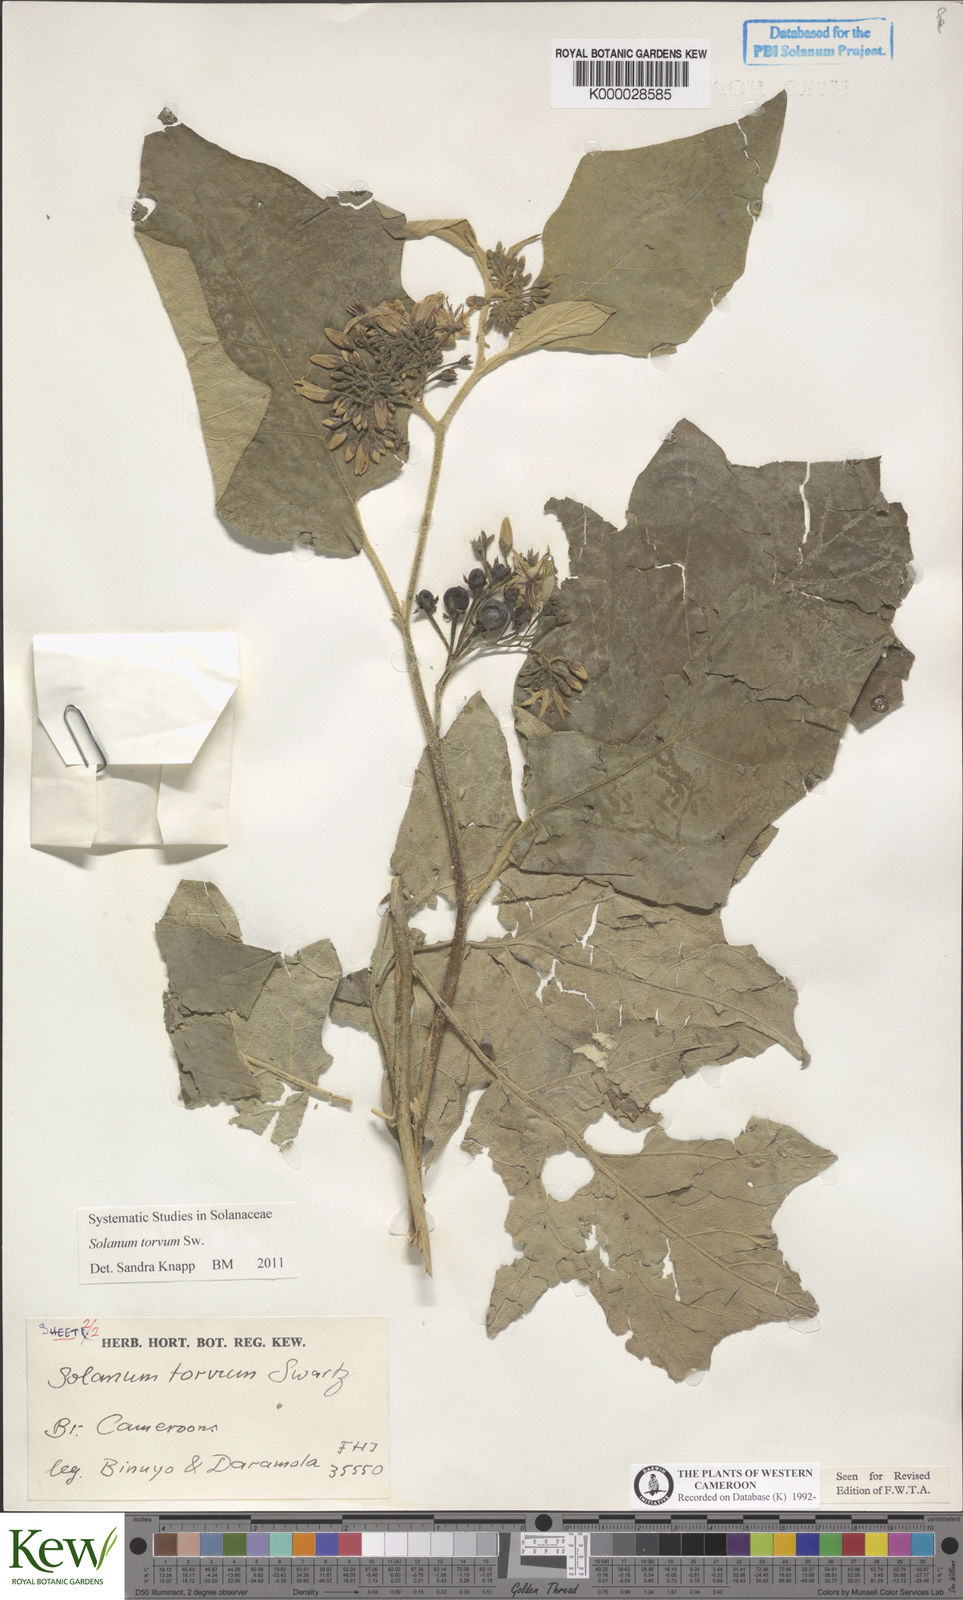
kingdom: Plantae
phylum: Tracheophyta
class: Magnoliopsida
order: Solanales
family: Solanaceae
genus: Solanum
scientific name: Solanum torvum
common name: Turkey berry
